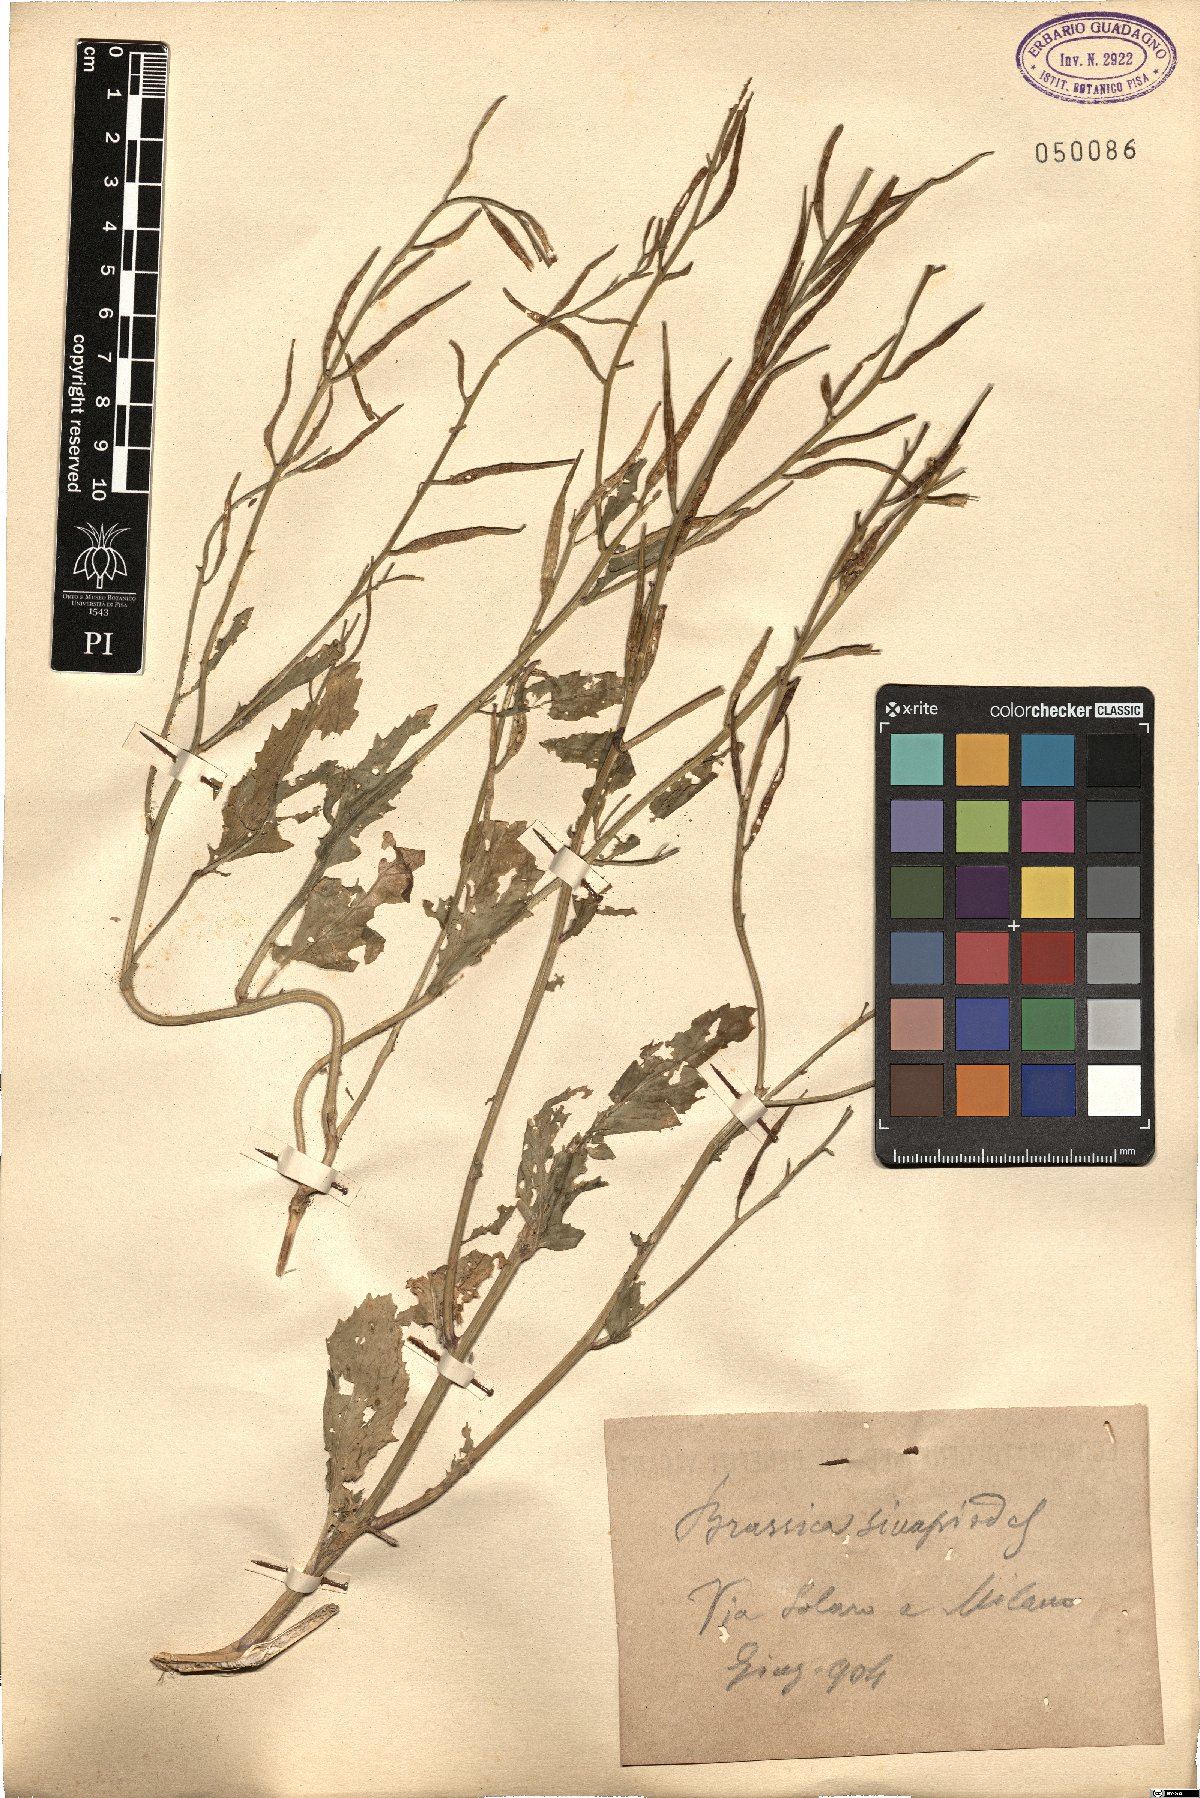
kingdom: Plantae
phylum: Tracheophyta
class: Magnoliopsida
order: Brassicales
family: Brassicaceae
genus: Brassica
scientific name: Brassica nigra
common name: Black mustard
